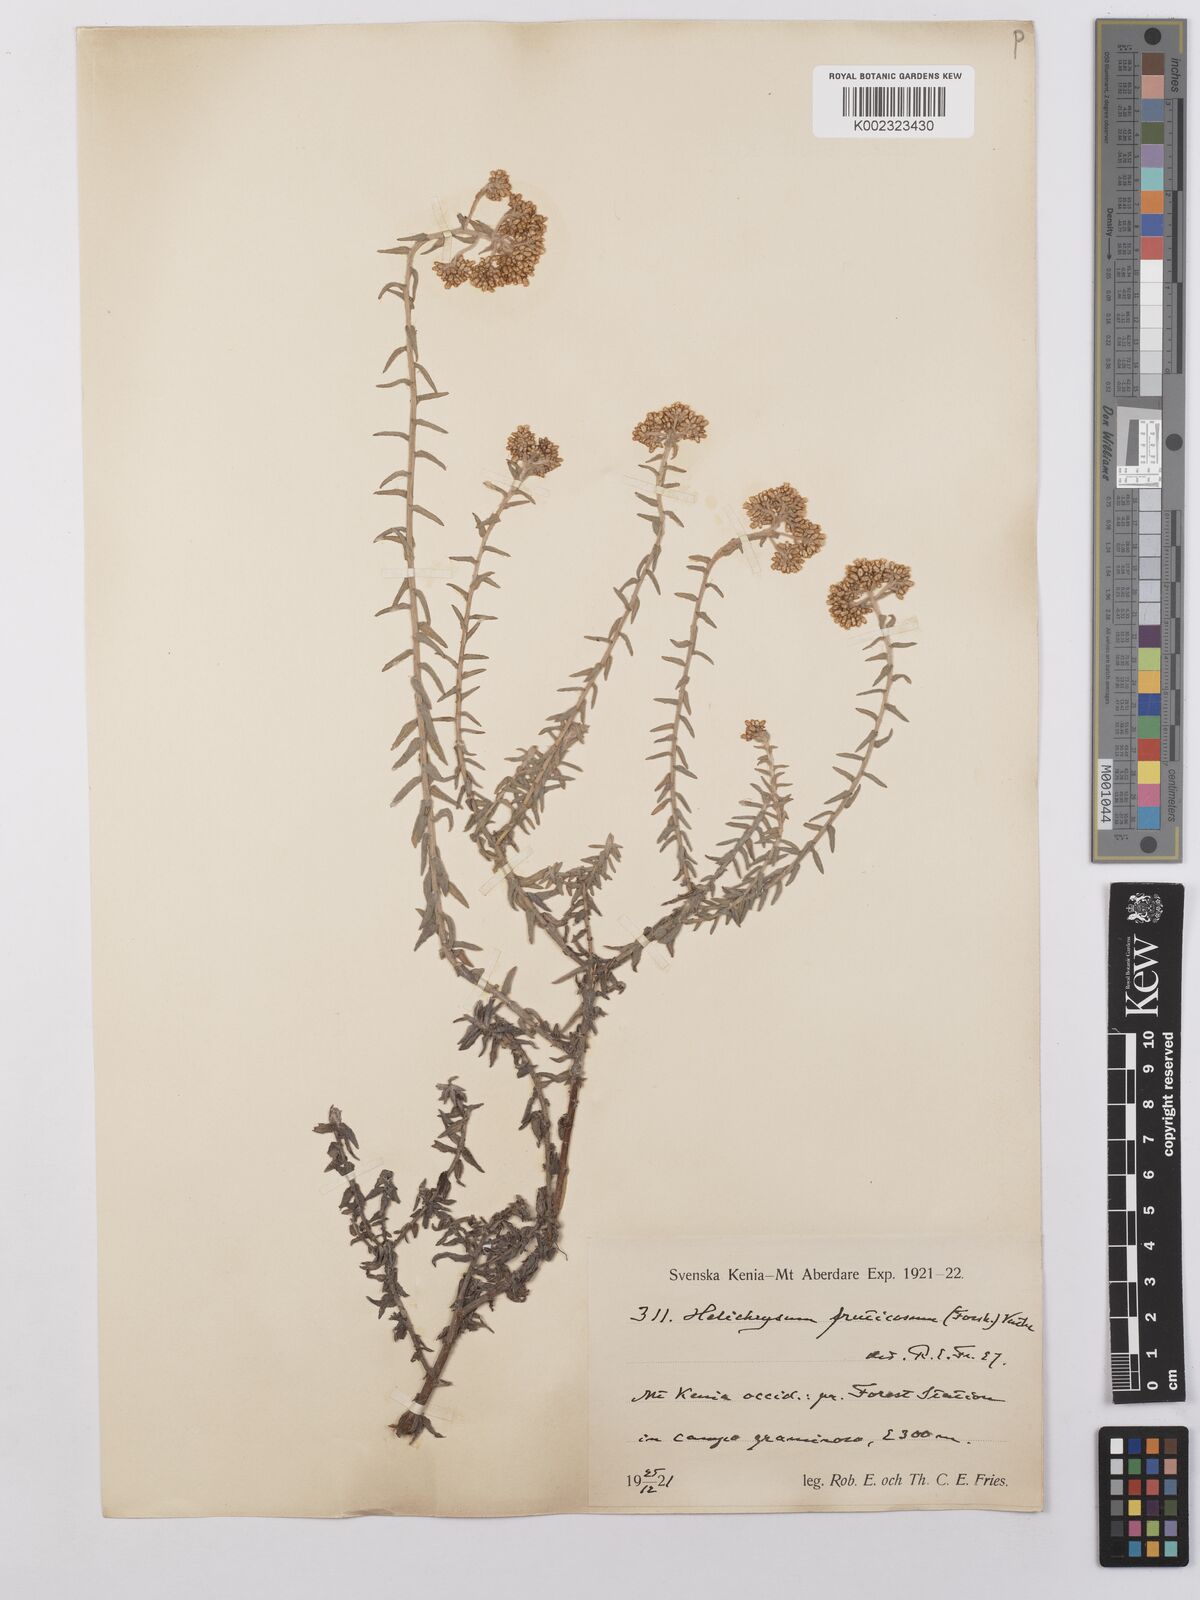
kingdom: Plantae
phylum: Tracheophyta
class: Magnoliopsida
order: Asterales
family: Asteraceae
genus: Helichrysum
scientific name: Helichrysum forskahlii
